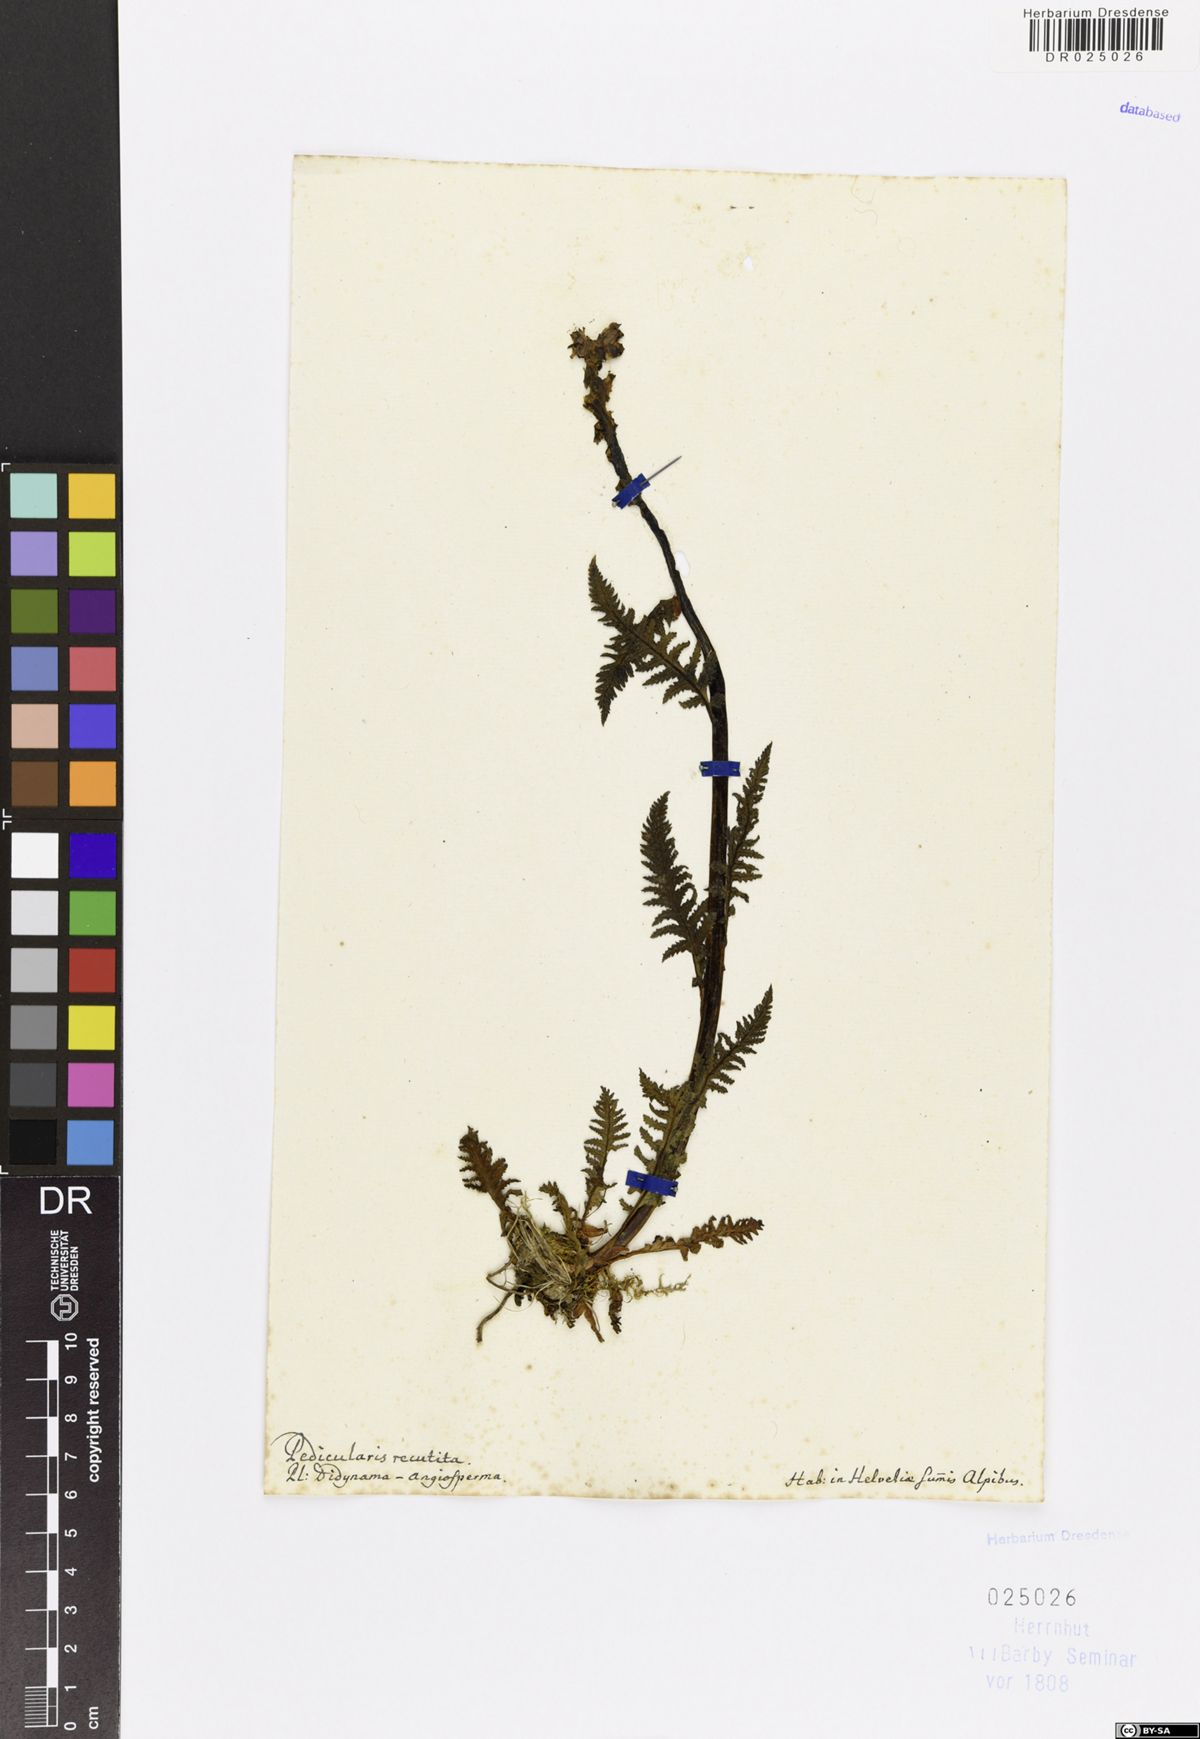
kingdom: Plantae
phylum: Tracheophyta
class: Magnoliopsida
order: Lamiales
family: Orobanchaceae
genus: Pedicularis
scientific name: Pedicularis recutita
